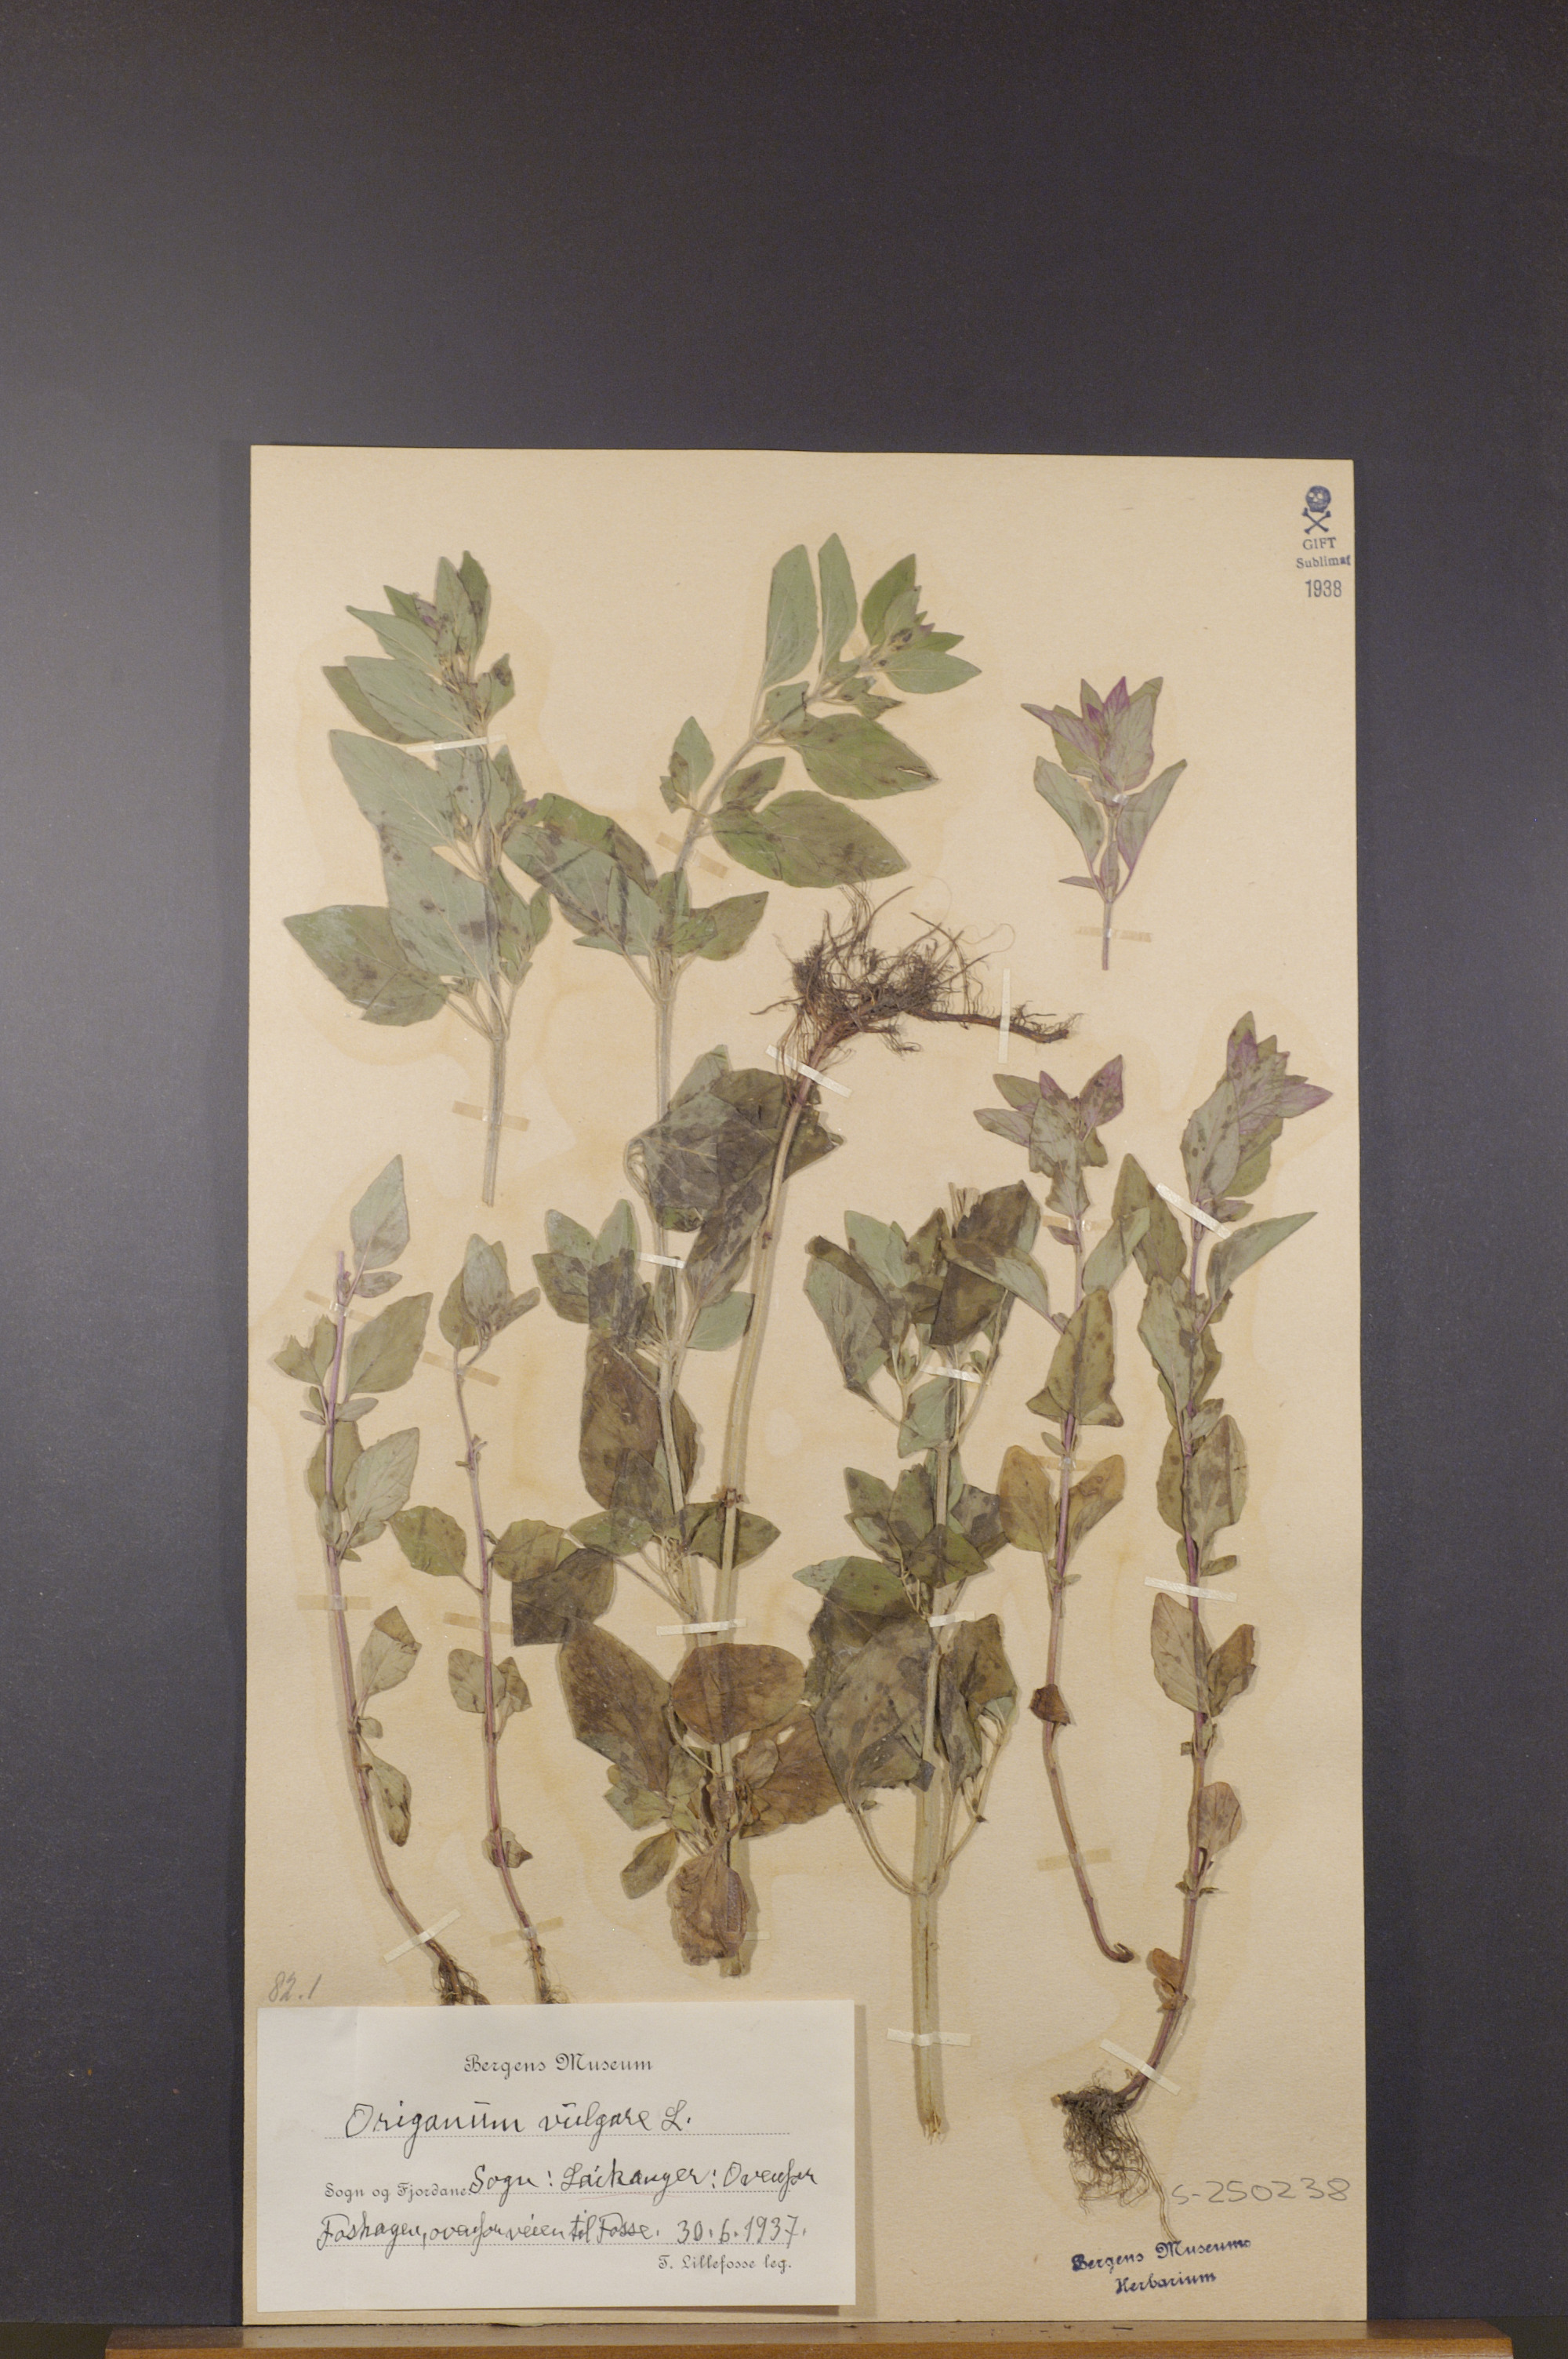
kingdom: Plantae
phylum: Tracheophyta
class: Magnoliopsida
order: Lamiales
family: Lamiaceae
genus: Origanum
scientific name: Origanum vulgare
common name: Wild marjoram
